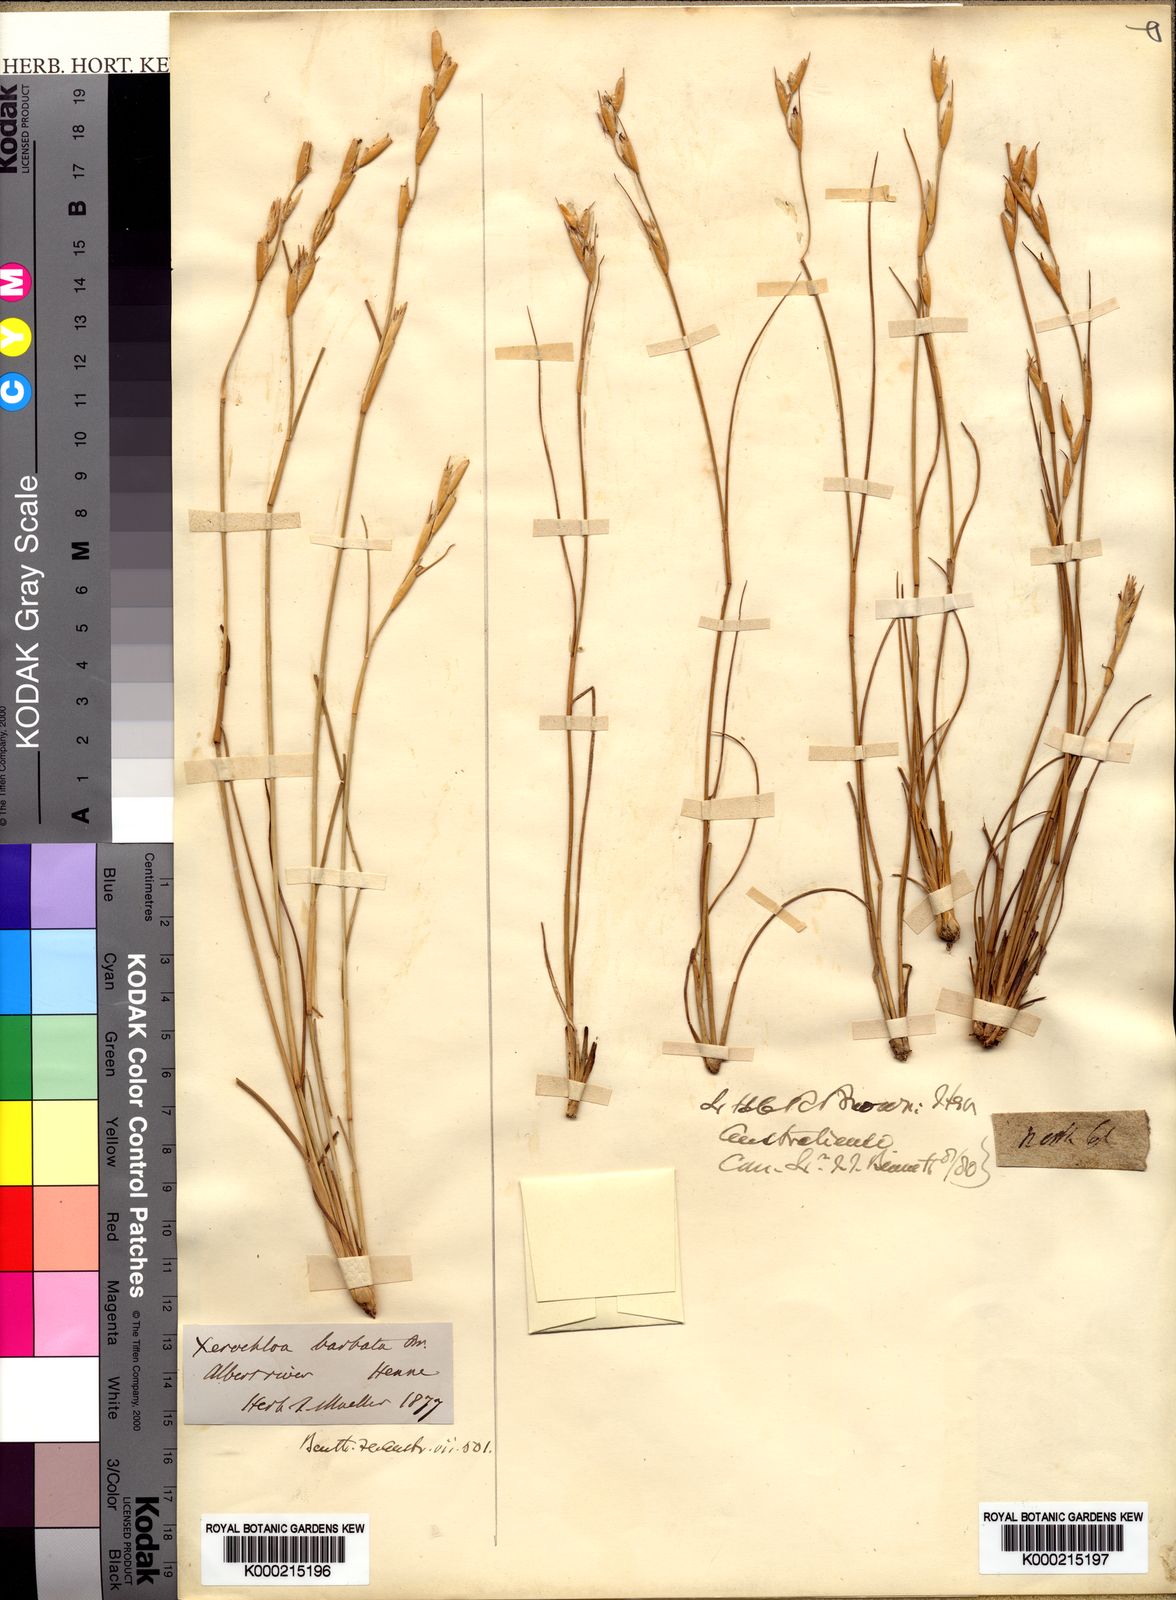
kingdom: Plantae
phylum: Tracheophyta
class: Liliopsida
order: Poales
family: Poaceae
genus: Xerochloa
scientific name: Xerochloa barbata
